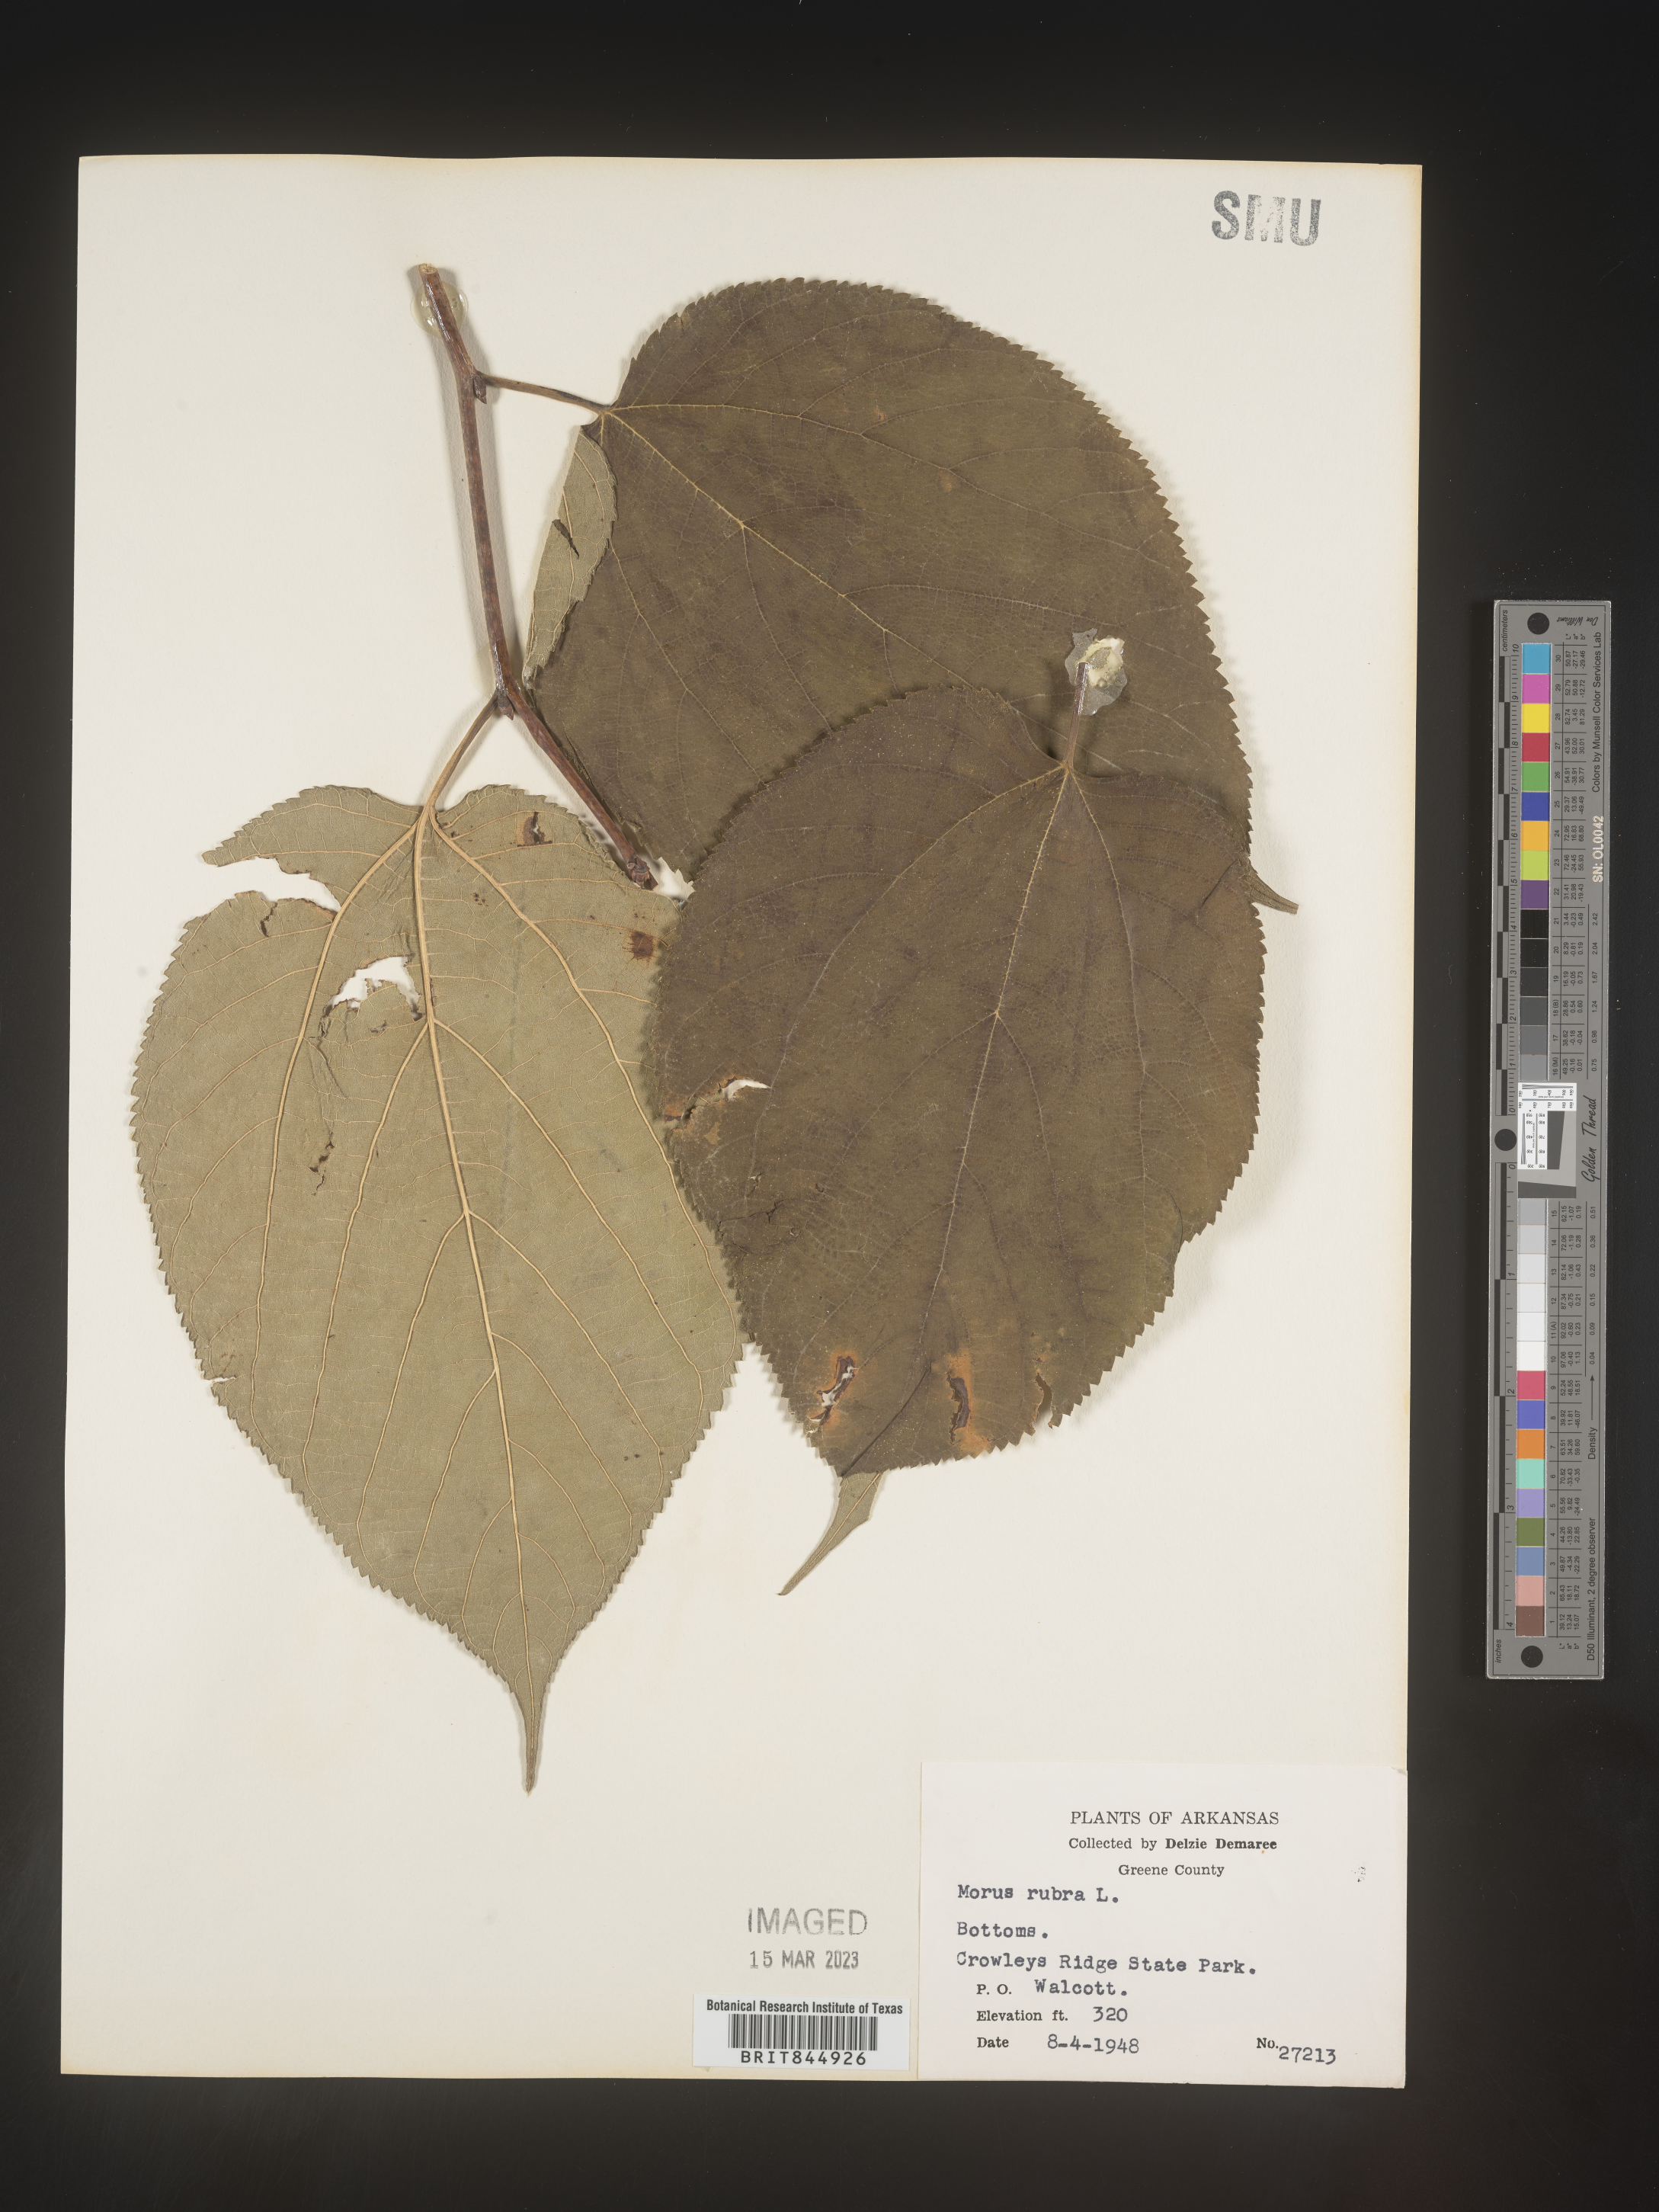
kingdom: Plantae
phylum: Tracheophyta
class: Magnoliopsida
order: Rosales
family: Moraceae
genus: Morus
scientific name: Morus rubra
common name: Red mulberry
